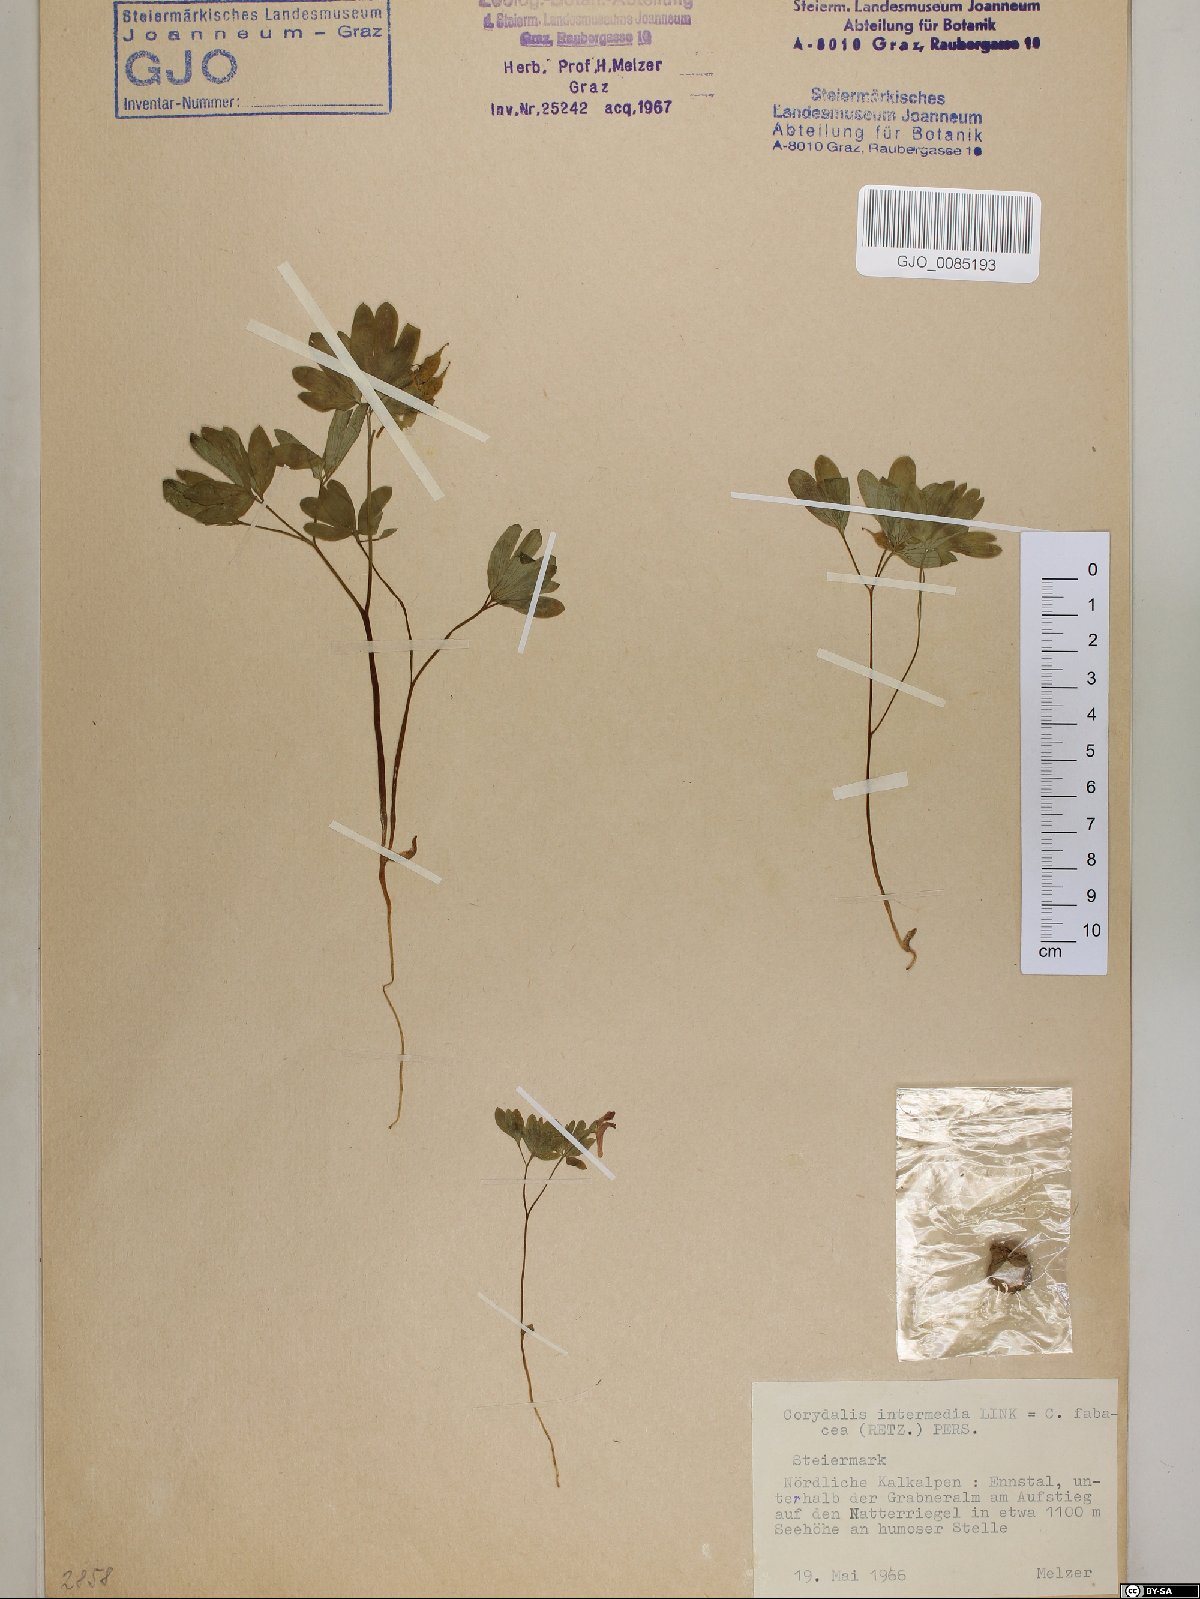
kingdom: Plantae
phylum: Tracheophyta
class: Magnoliopsida
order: Ranunculales
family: Papaveraceae
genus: Corydalis
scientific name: Corydalis intermedia
